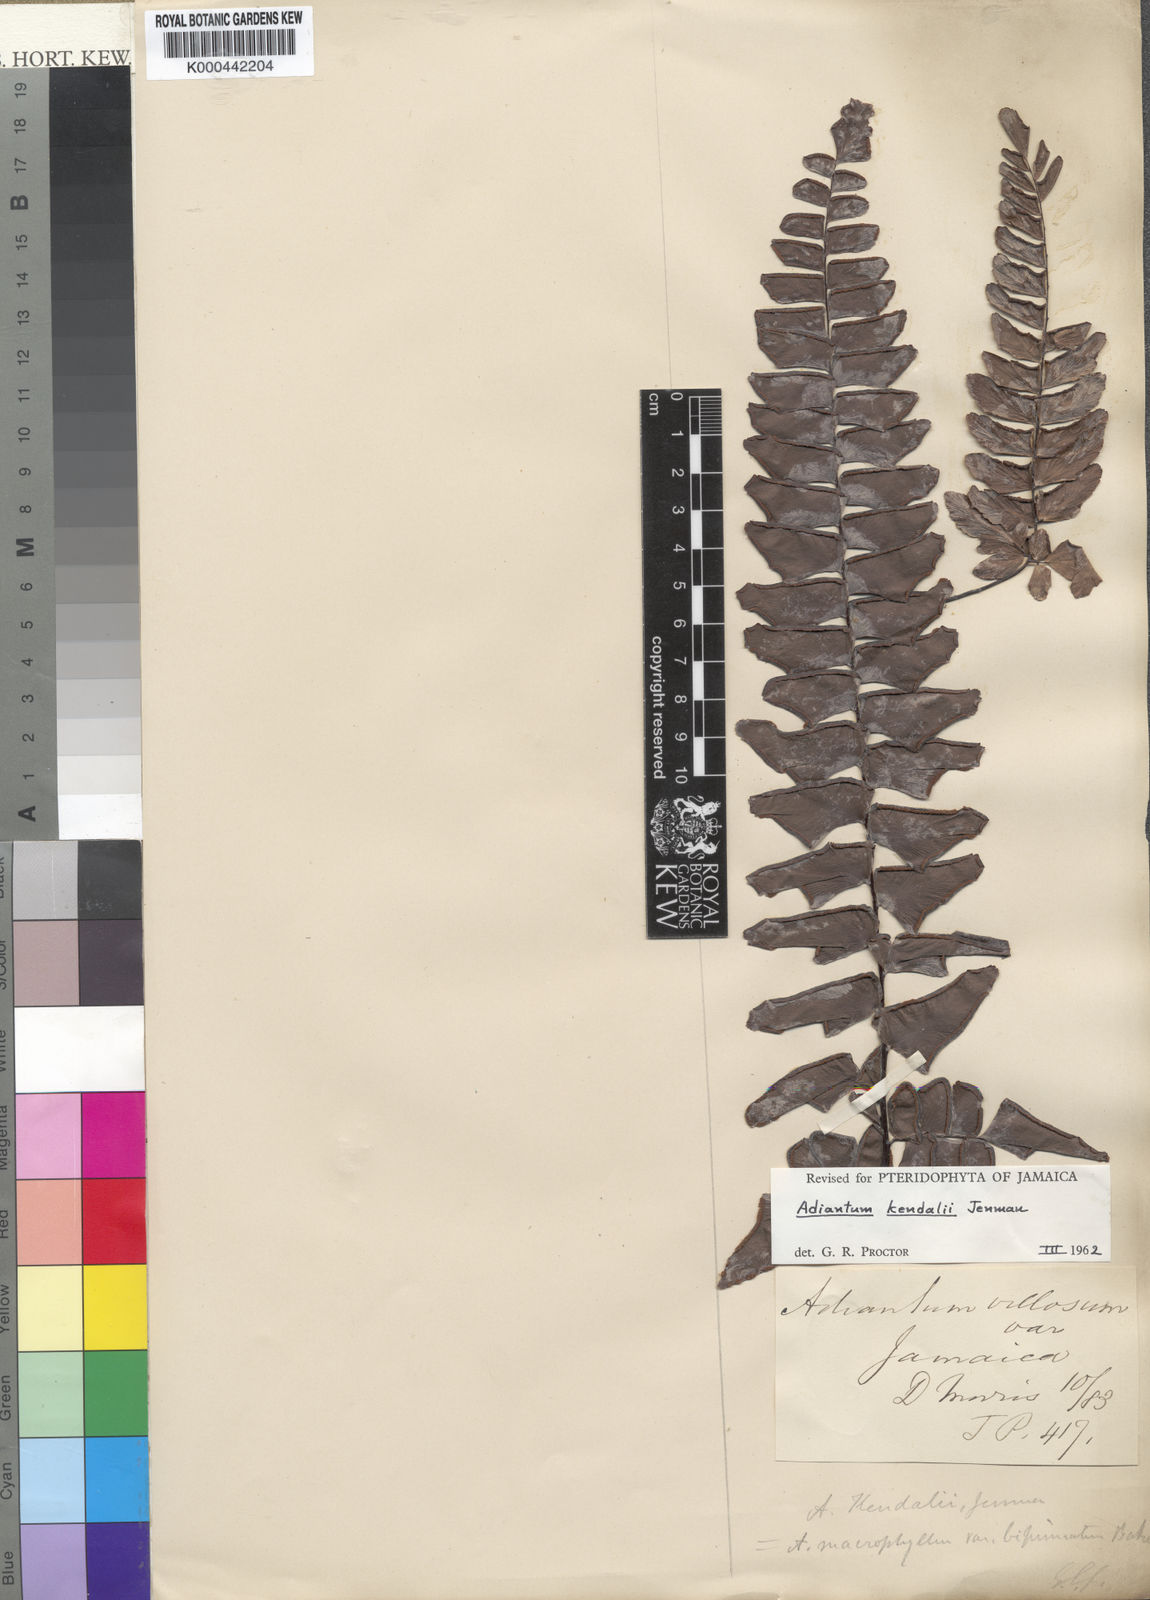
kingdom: Plantae
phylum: Tracheophyta
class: Polypodiopsida
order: Polypodiales
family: Pteridaceae
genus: Adiantum
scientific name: Adiantum kendalii
